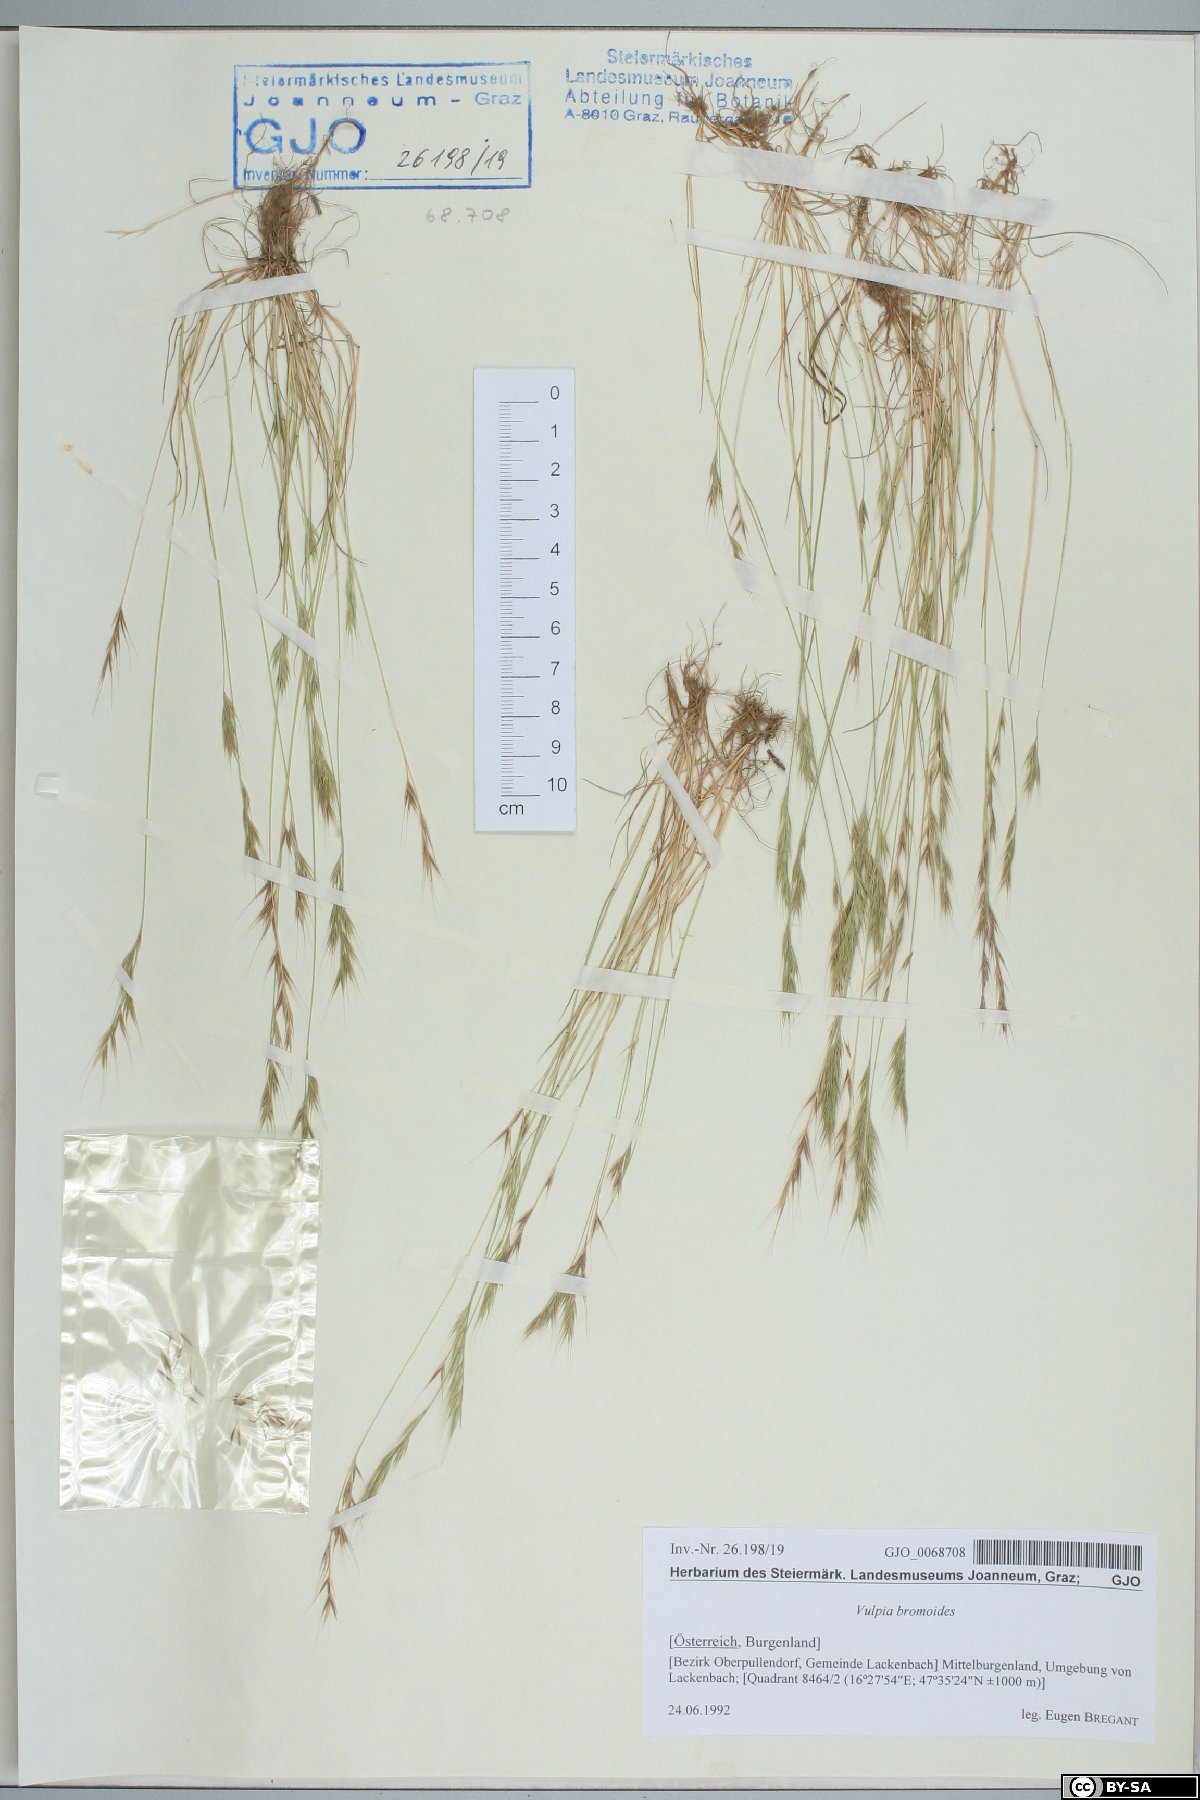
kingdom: Plantae
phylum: Tracheophyta
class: Liliopsida
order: Poales
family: Poaceae
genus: Festuca
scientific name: Festuca bromoides
